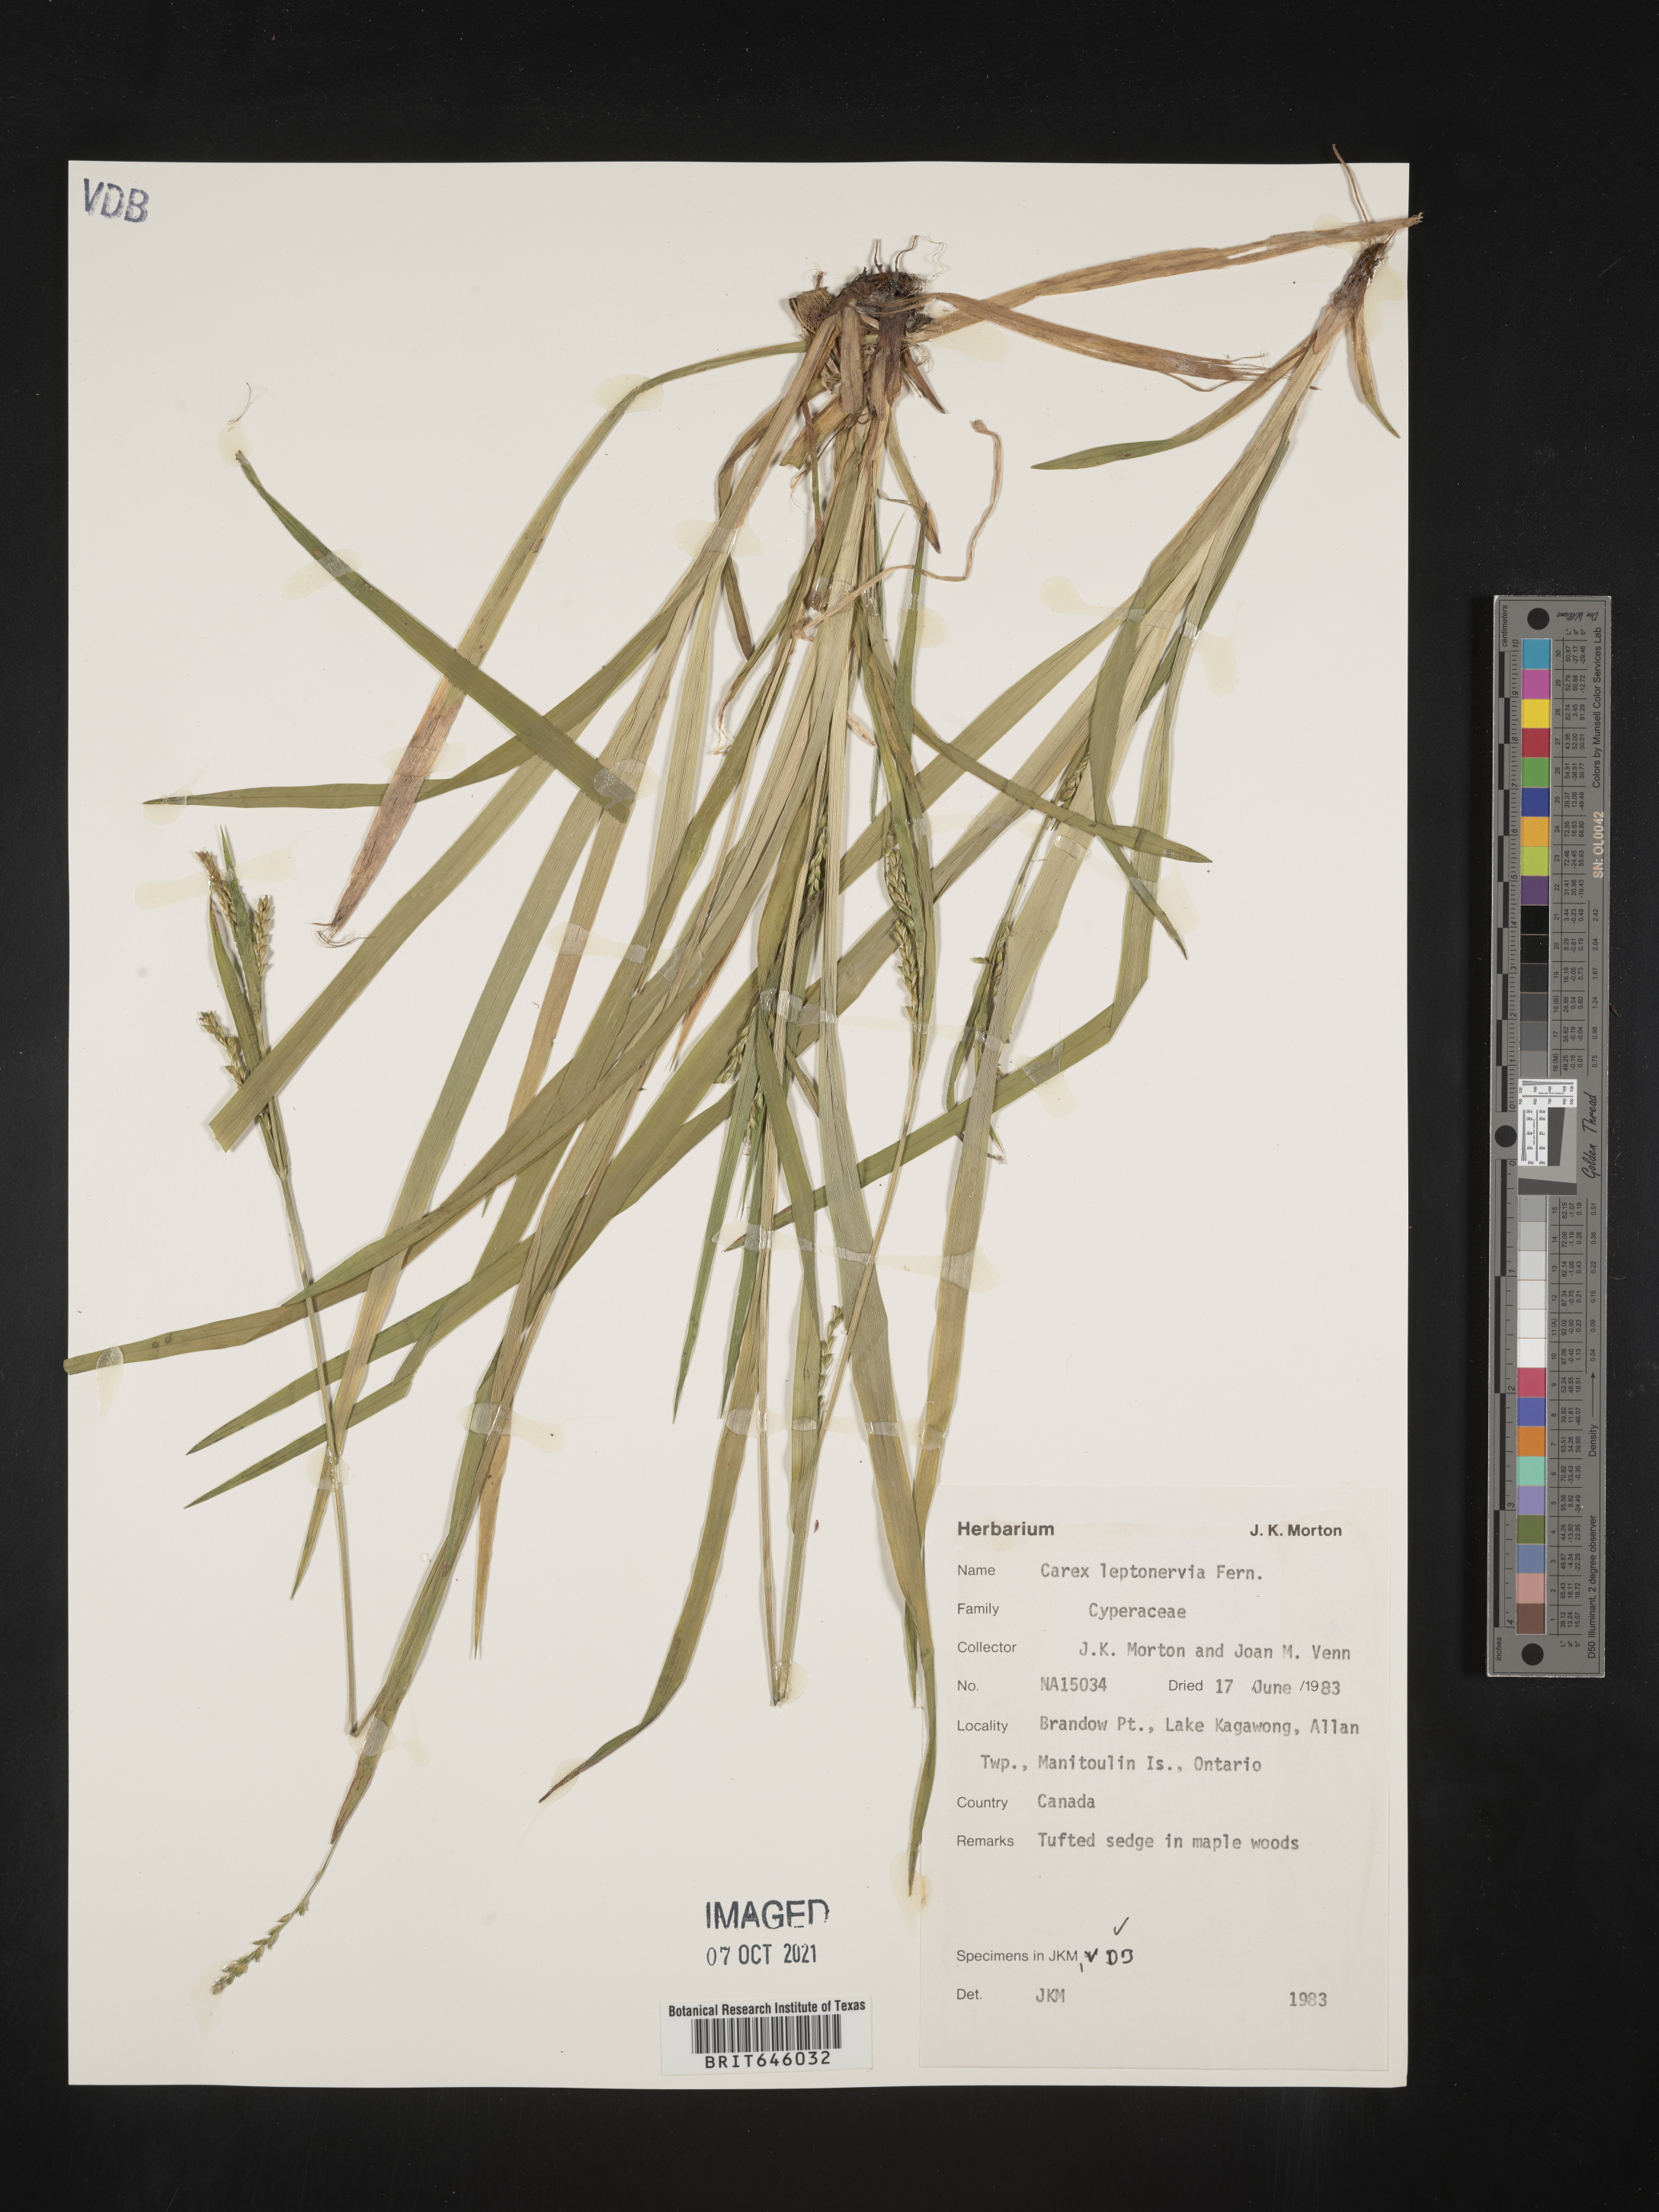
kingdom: Plantae
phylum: Tracheophyta
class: Liliopsida
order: Poales
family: Cyperaceae
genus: Carex
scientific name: Carex leptonervia
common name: Few-nerved wood sedge
